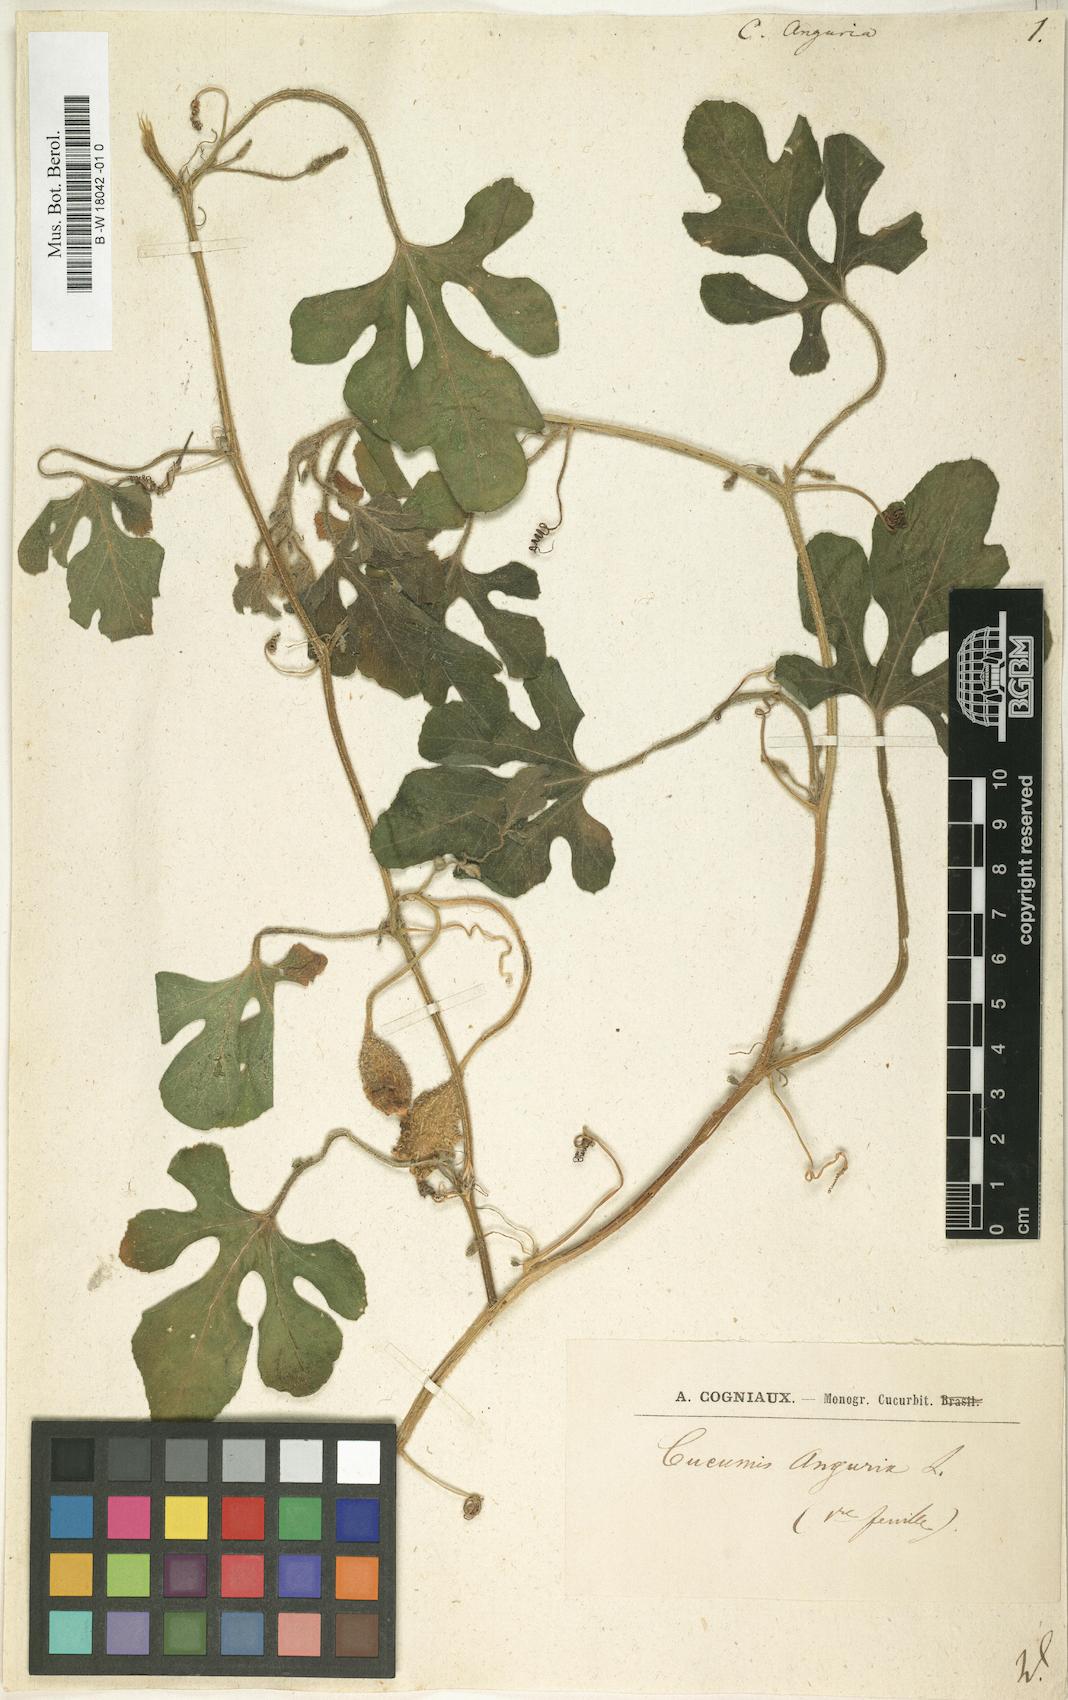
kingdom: Plantae
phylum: Tracheophyta
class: Magnoliopsida
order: Cucurbitales
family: Cucurbitaceae
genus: Cucumis
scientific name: Cucumis anguria
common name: West indian gherkin
